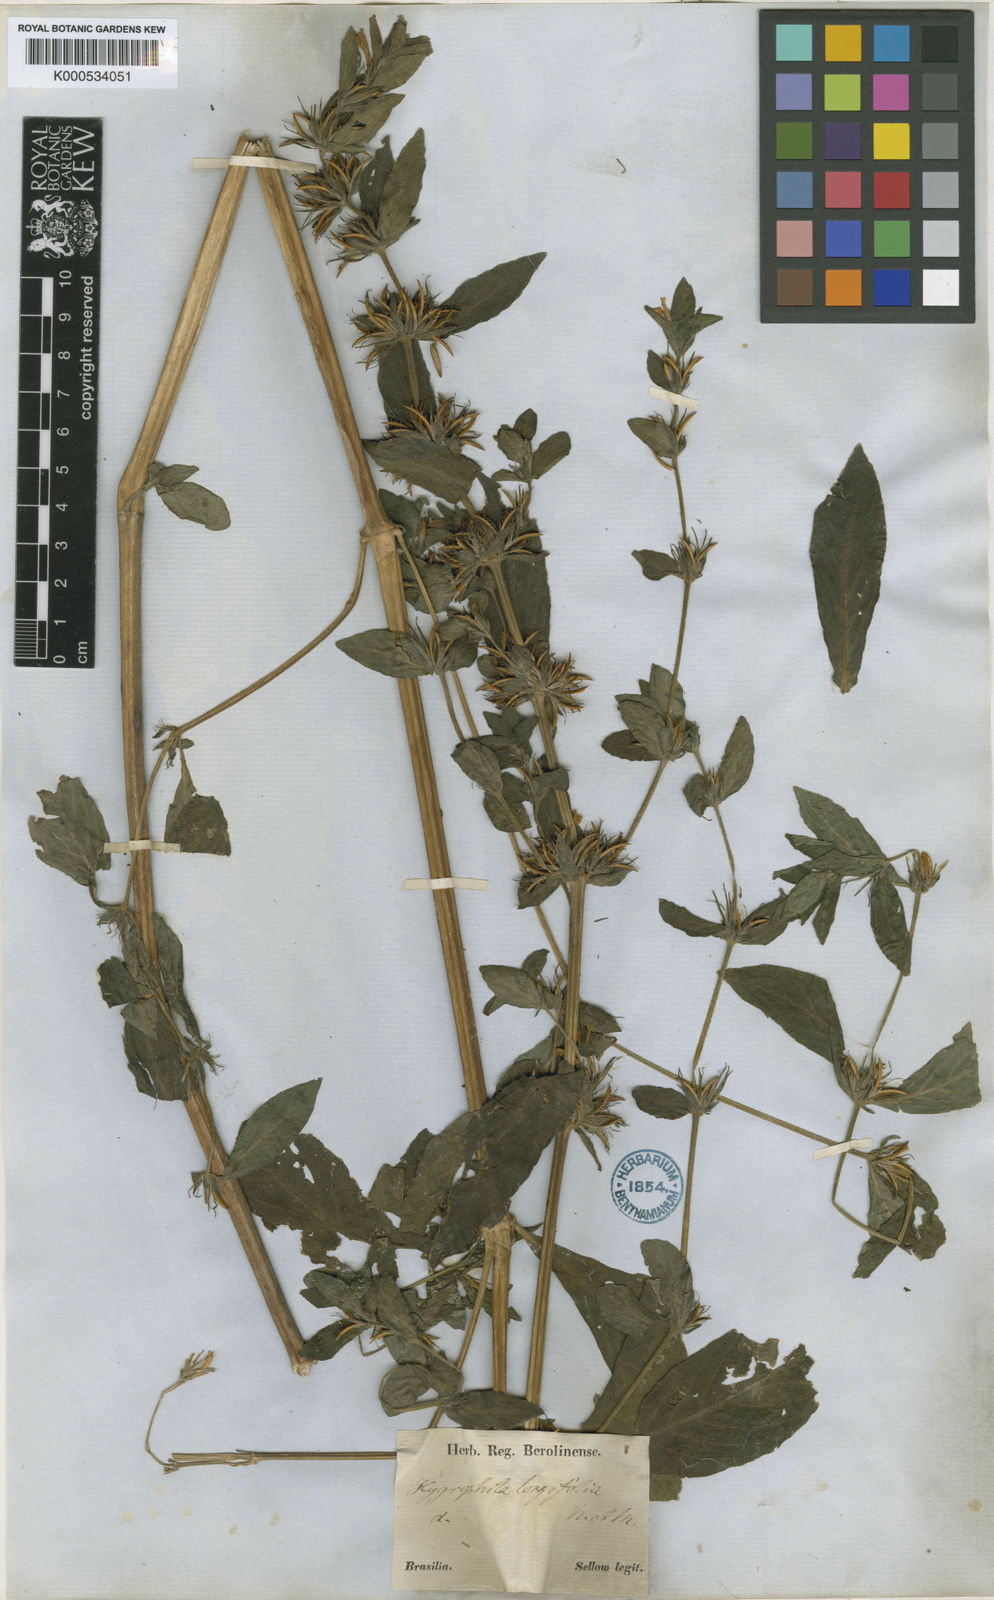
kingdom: Plantae
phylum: Tracheophyta
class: Magnoliopsida
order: Lamiales
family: Acanthaceae
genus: Hygrophila
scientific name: Hygrophila costata
